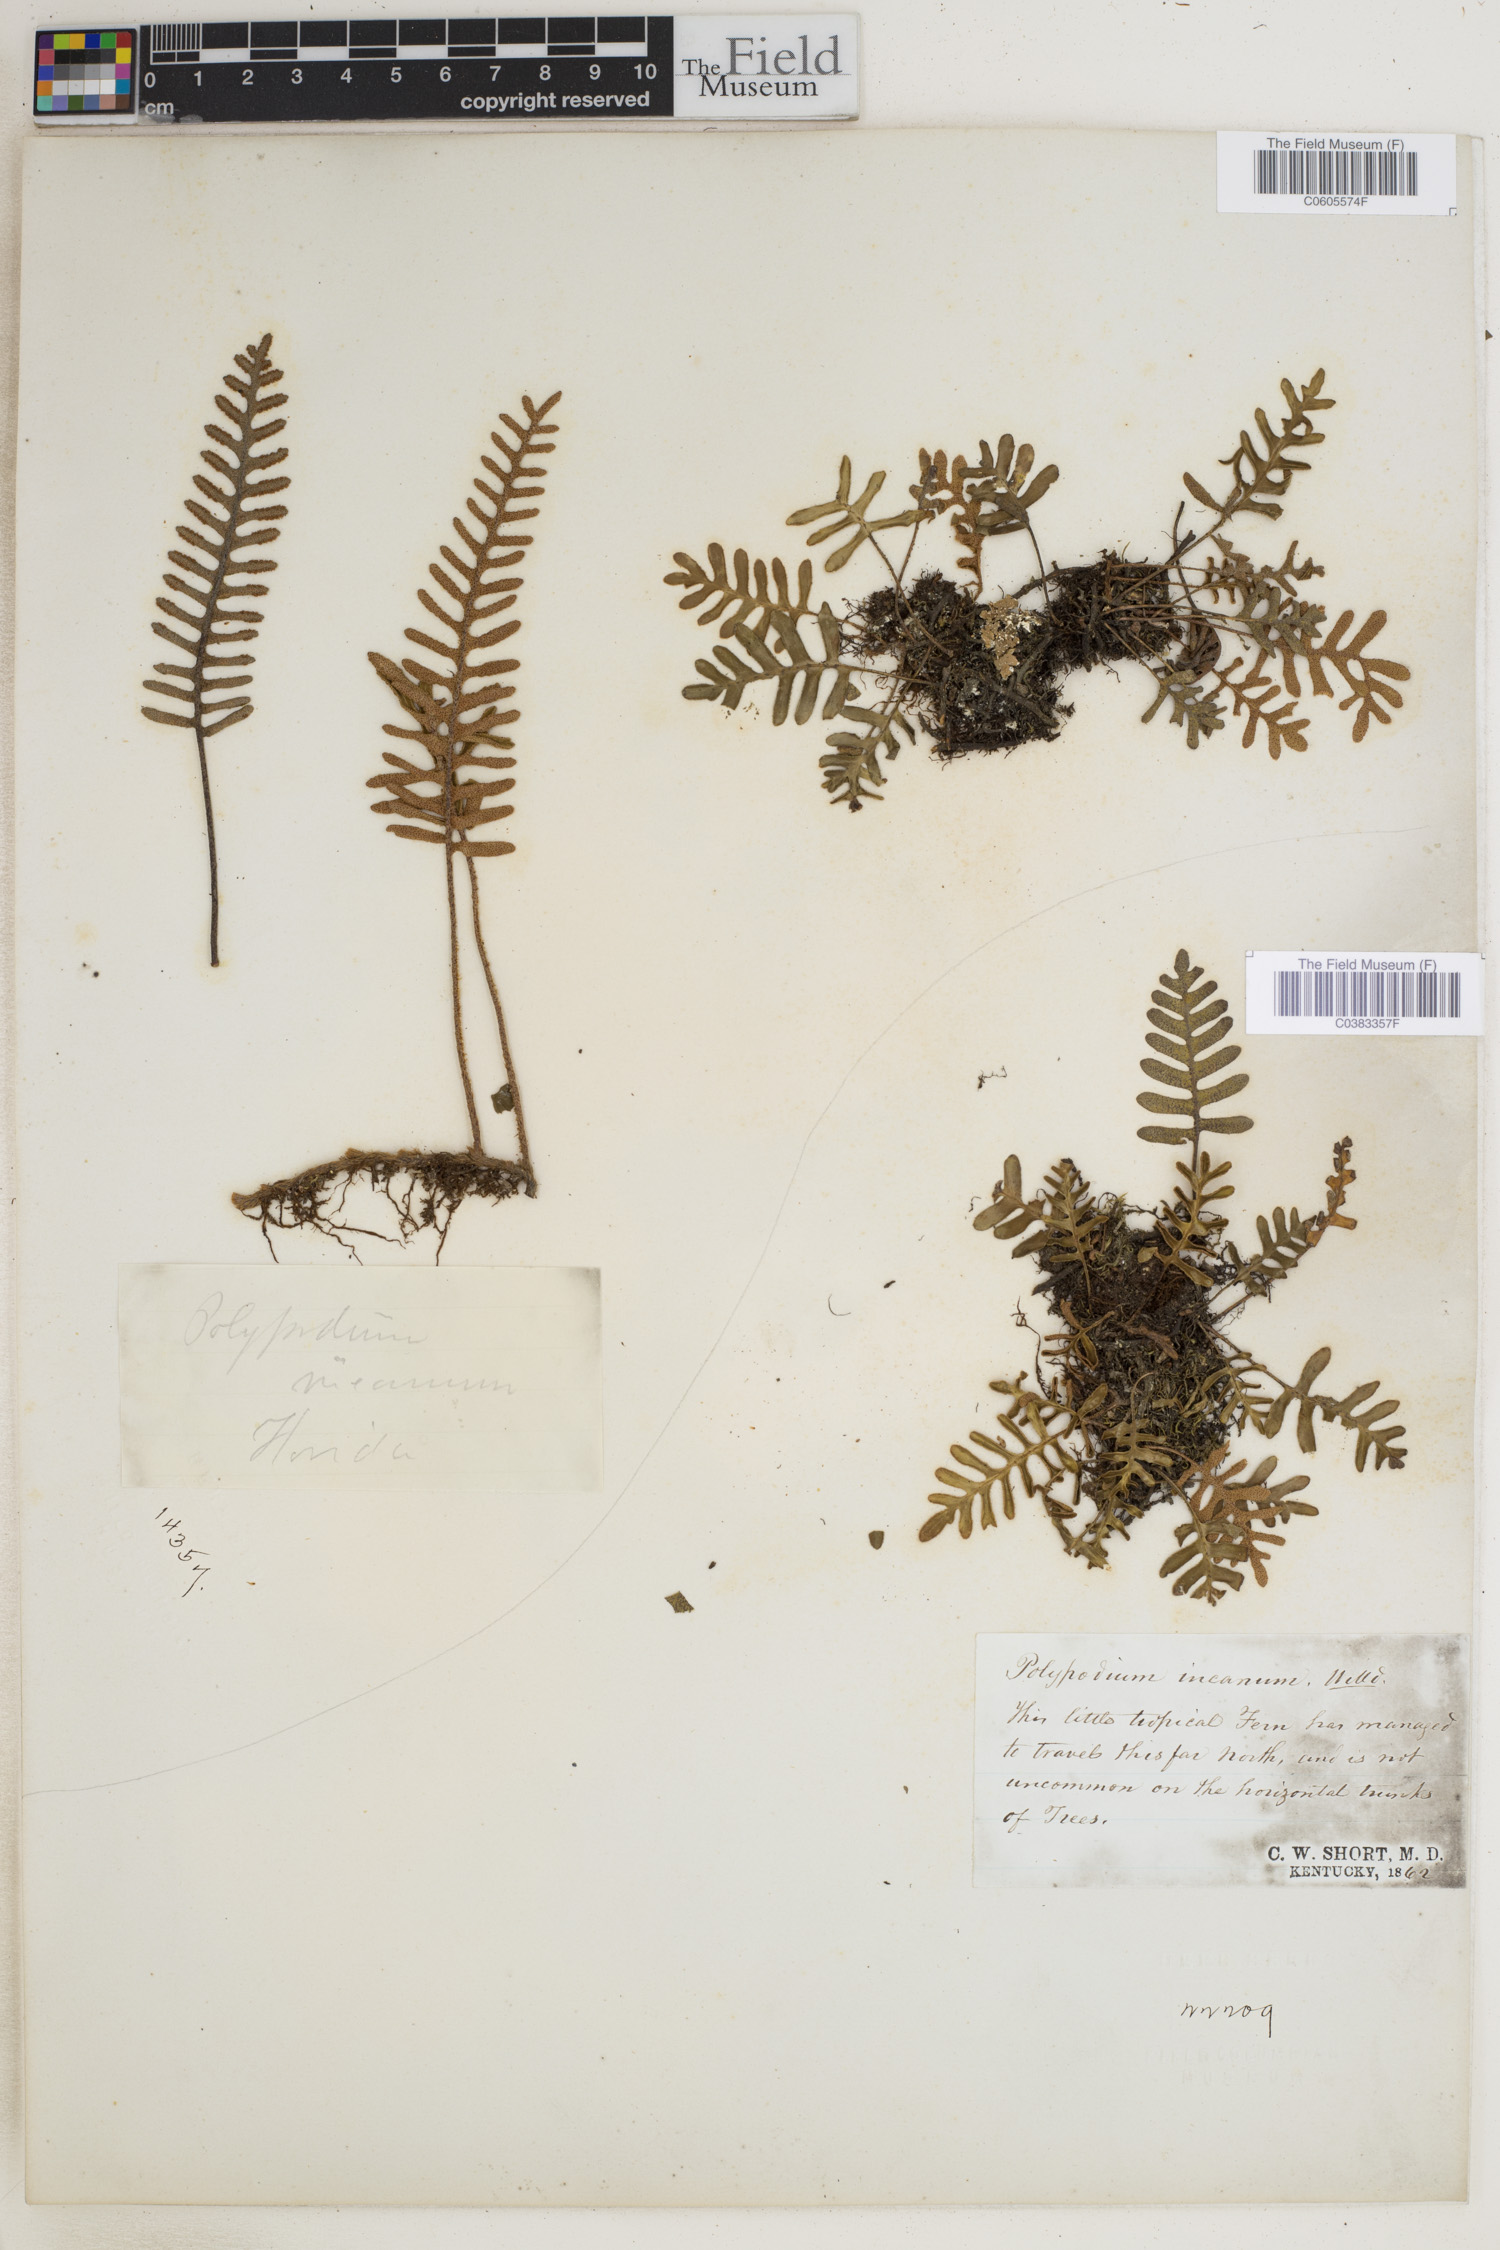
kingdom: Plantae
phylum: Tracheophyta
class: Polypodiopsida
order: Polypodiales
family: Polypodiaceae
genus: Pleopeltis
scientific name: Pleopeltis polypodioides
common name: Resurrection fern
